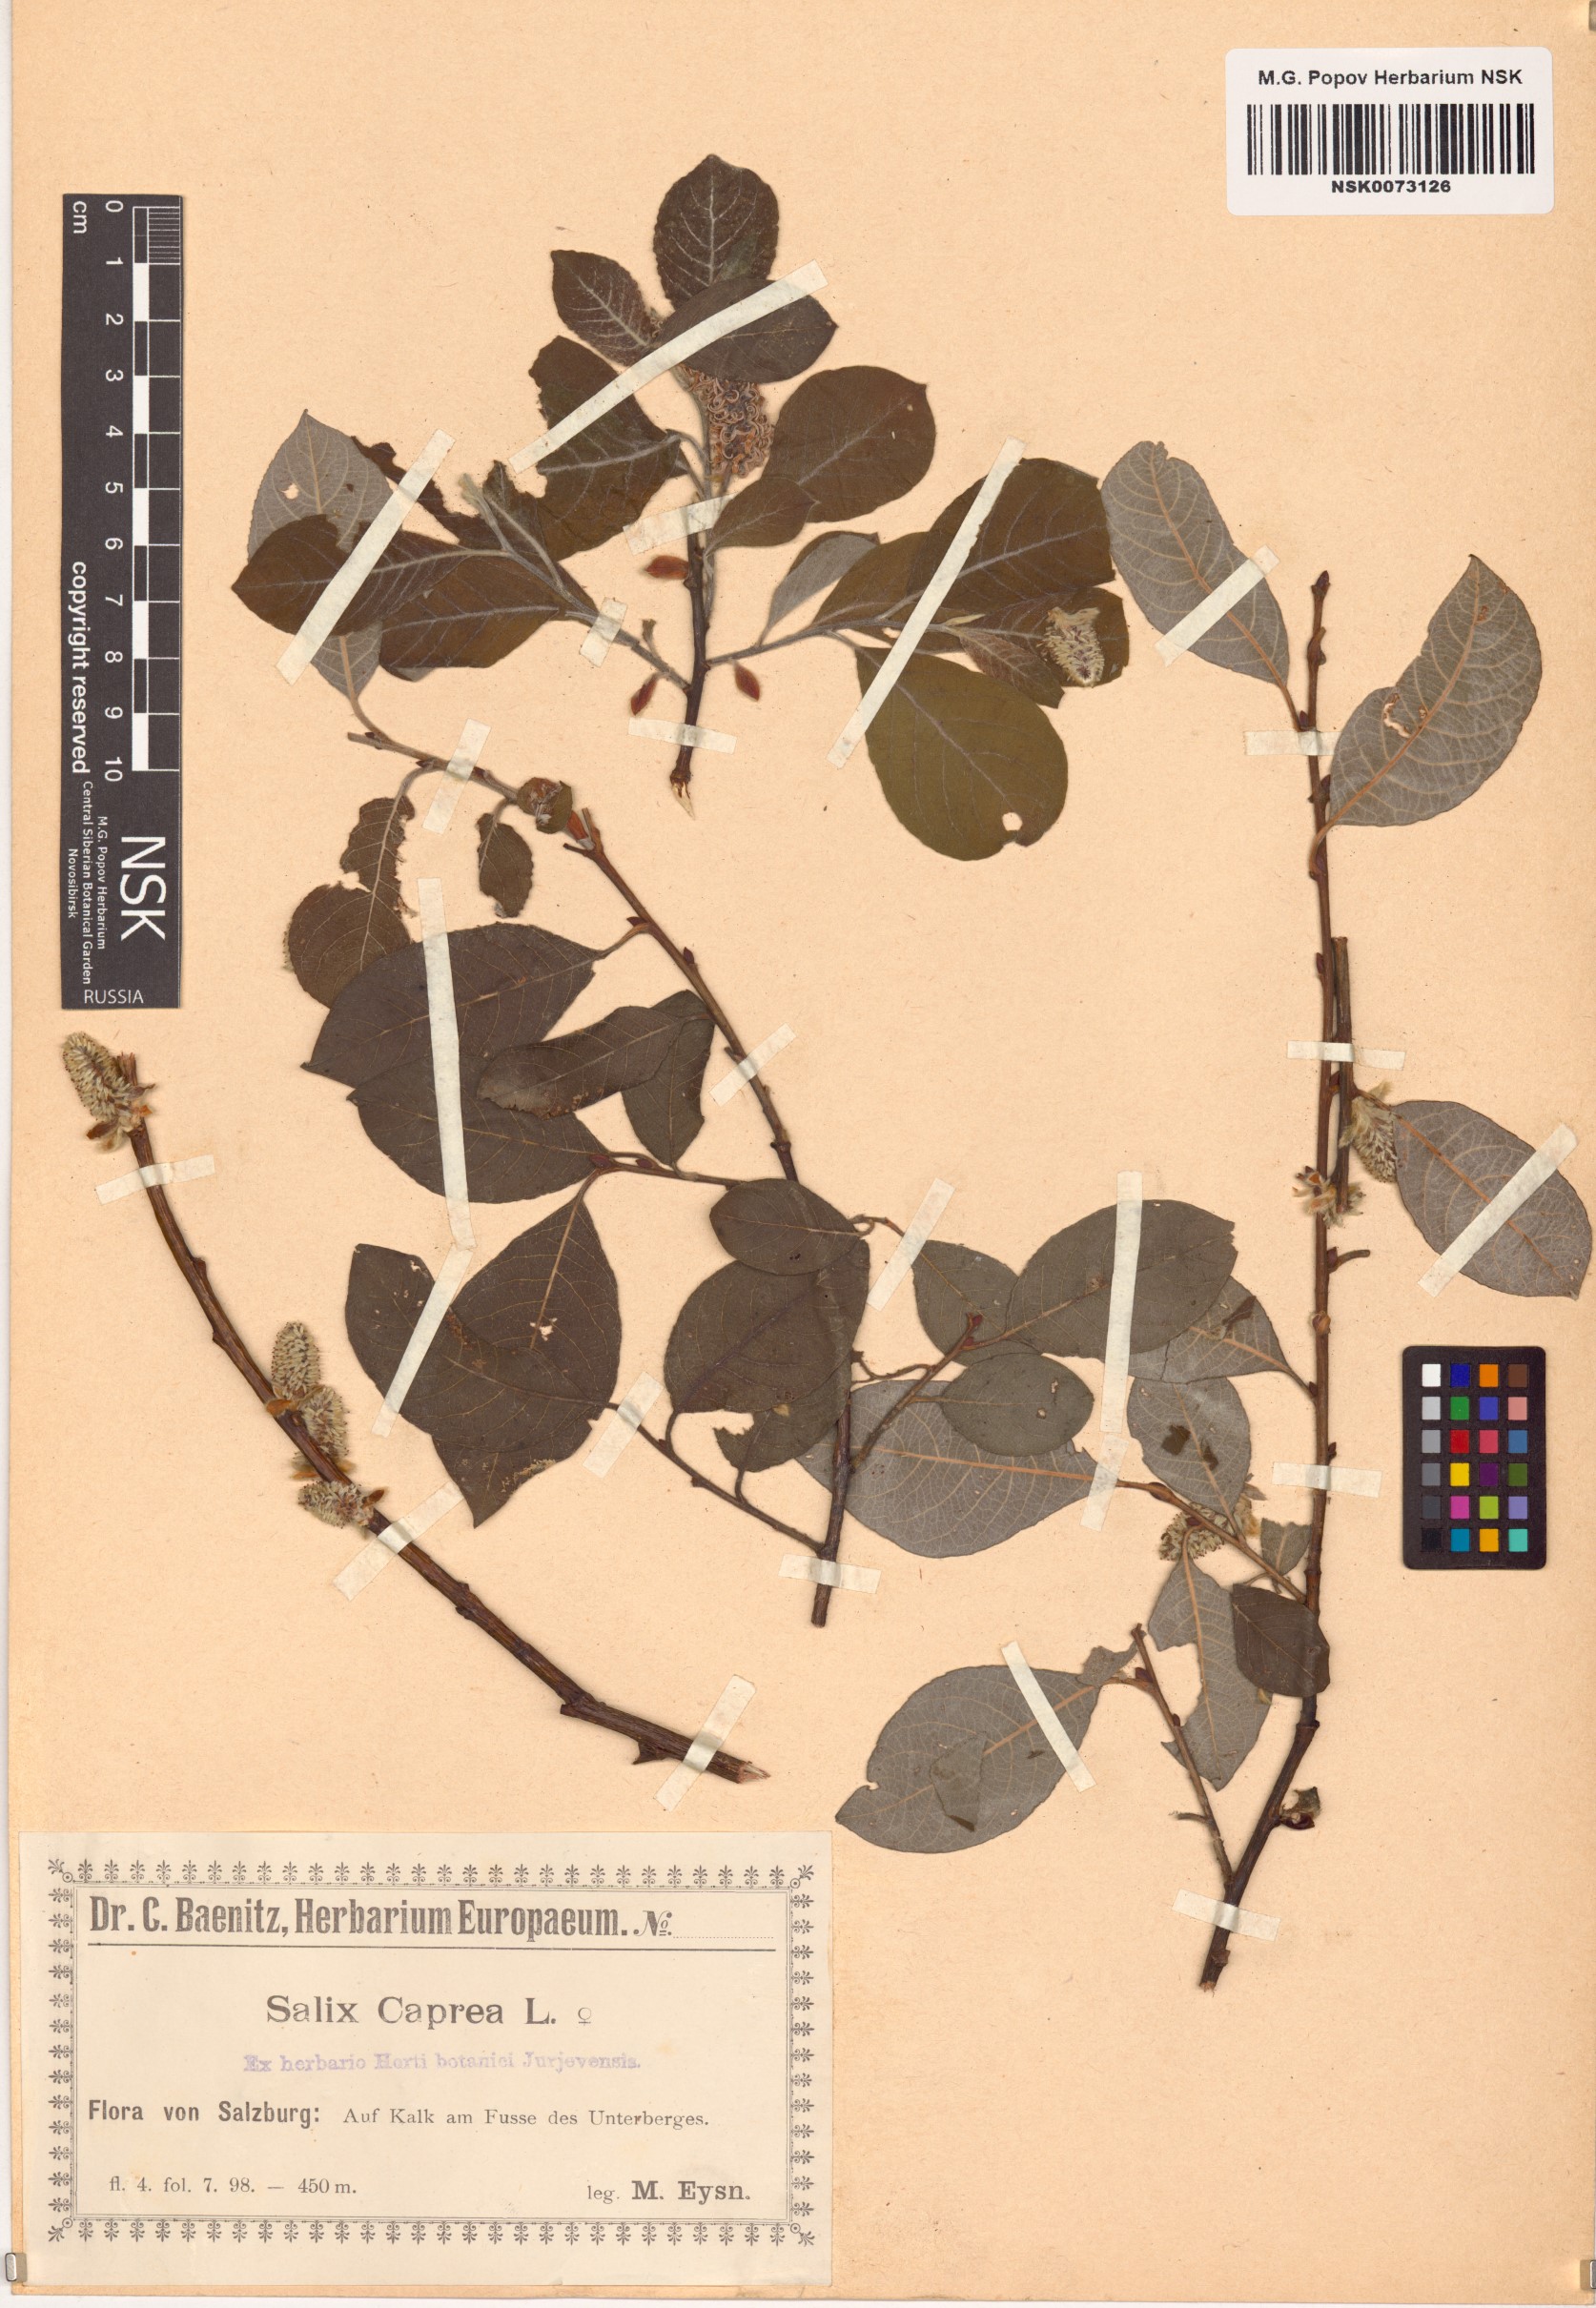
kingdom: Plantae
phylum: Tracheophyta
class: Magnoliopsida
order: Malpighiales
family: Salicaceae
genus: Salix
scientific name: Salix caprea
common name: Goat willow
